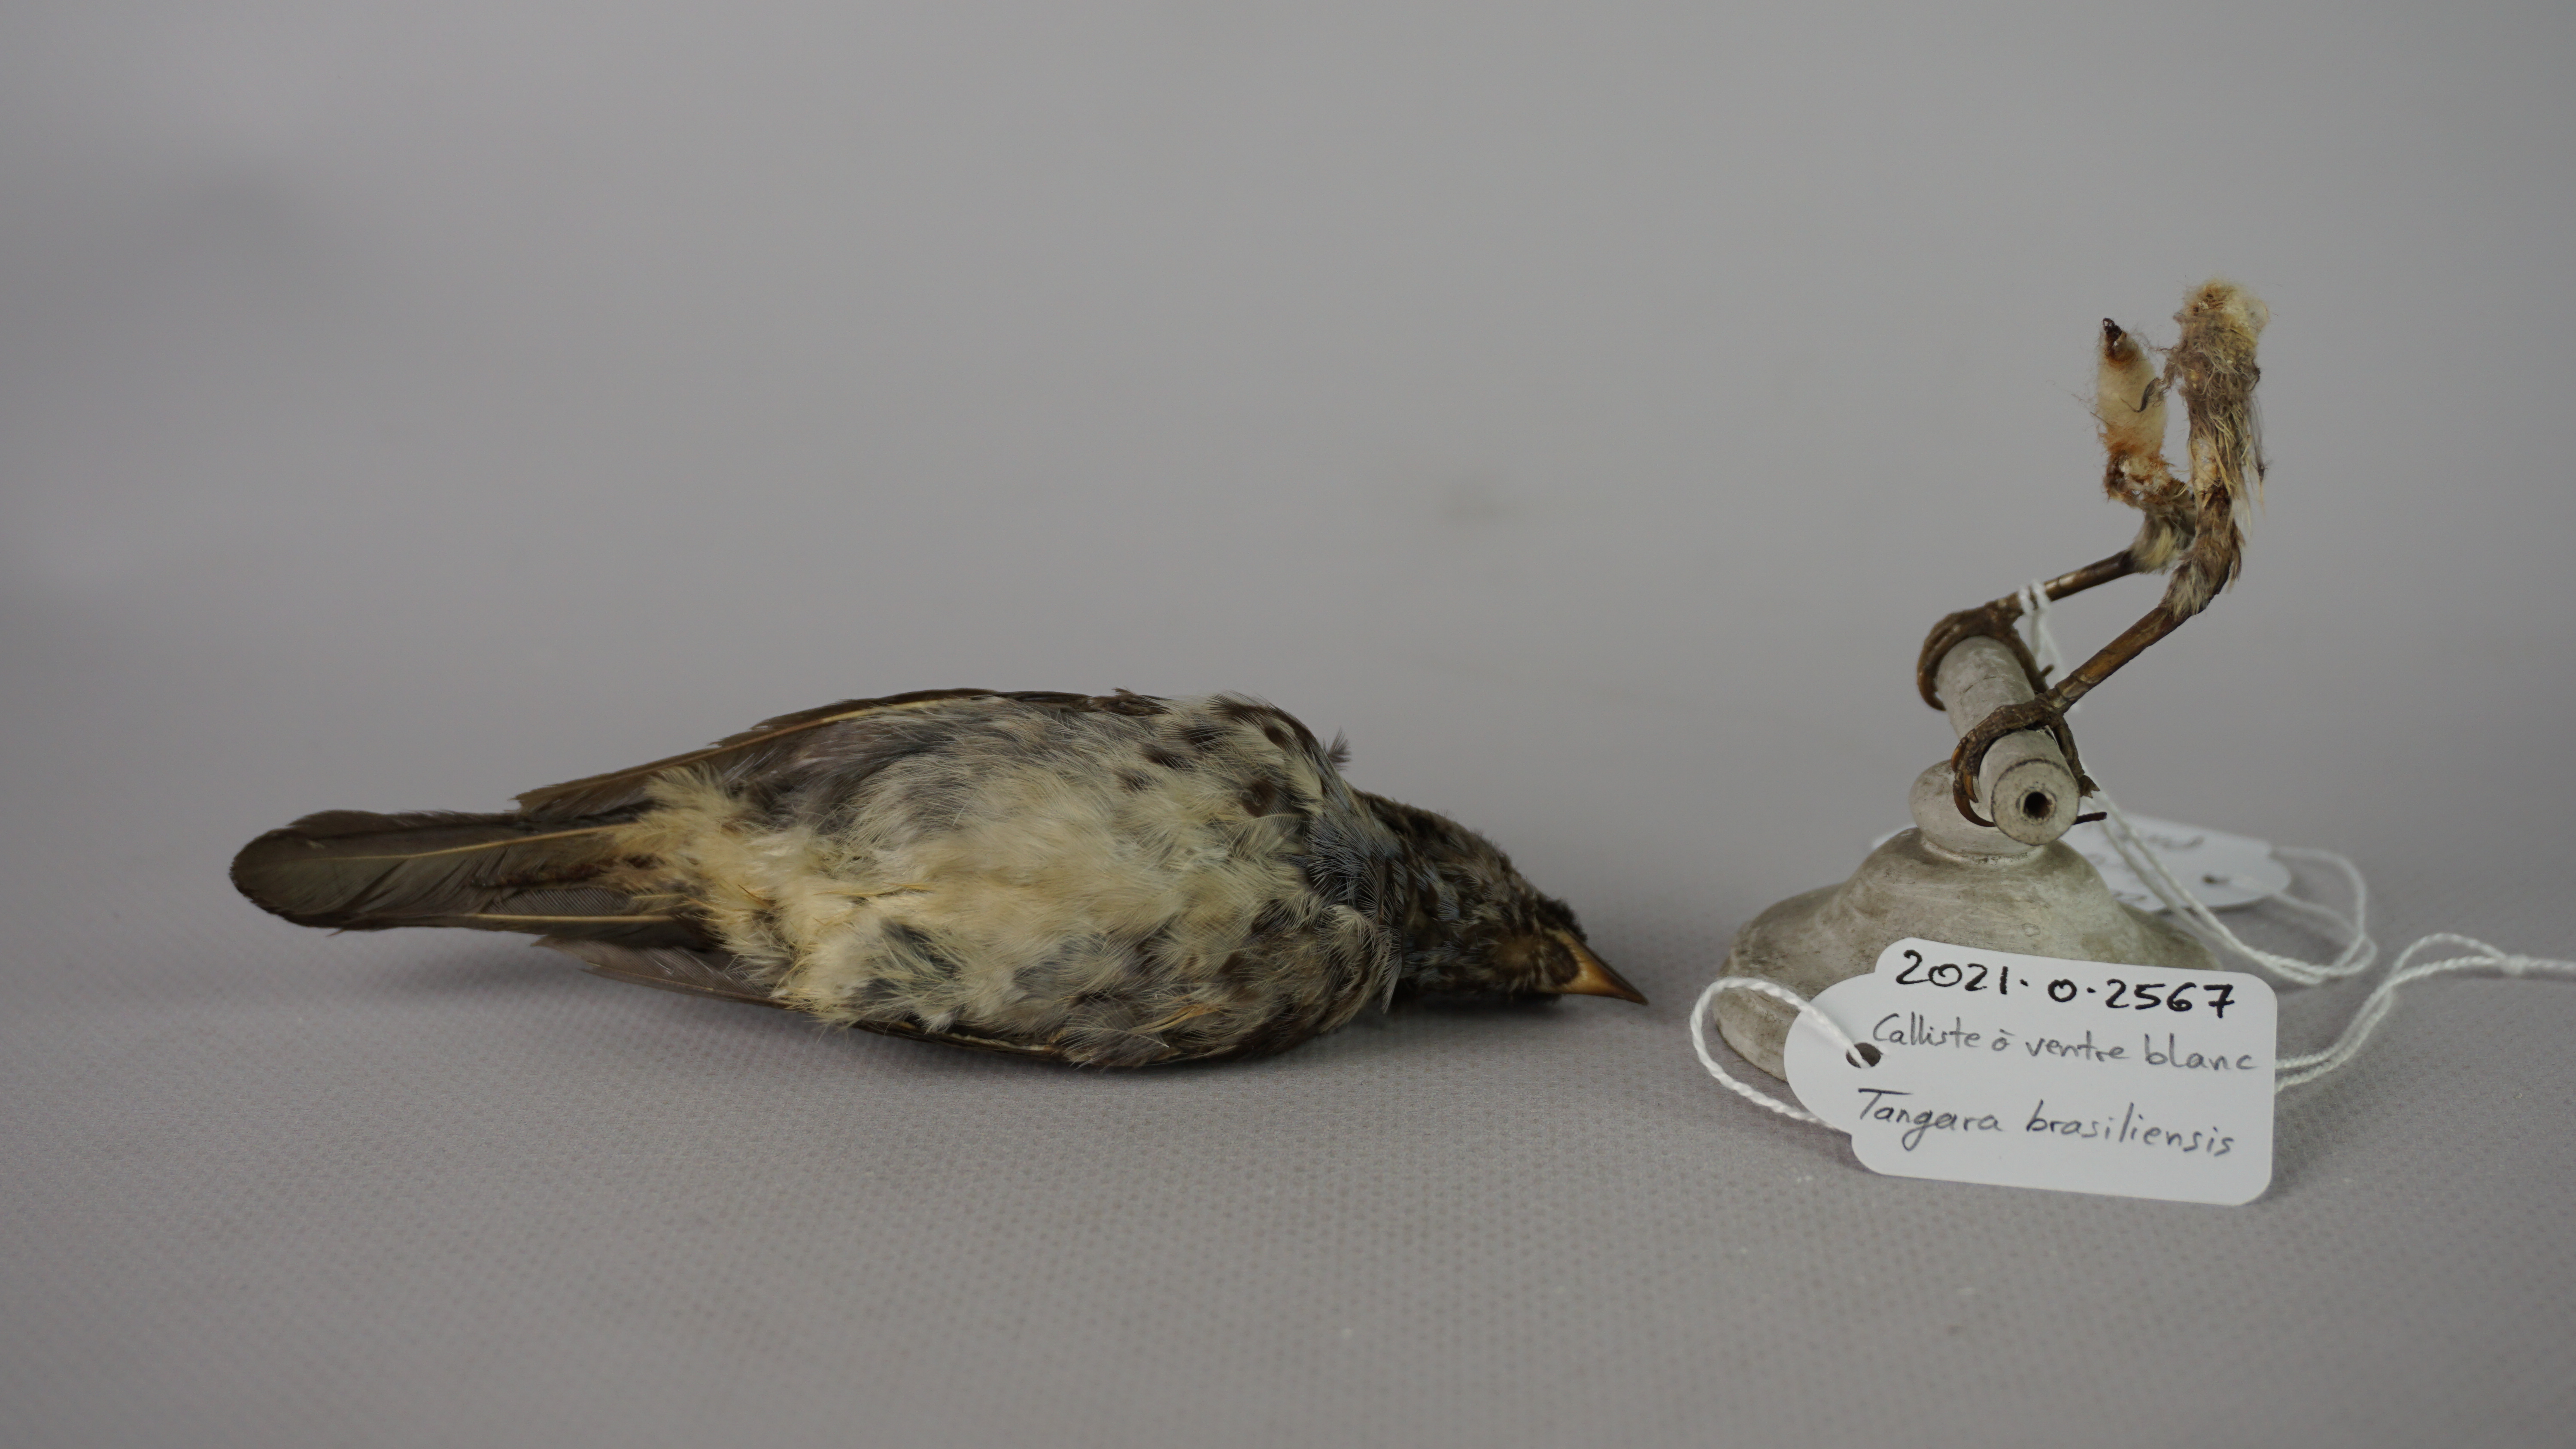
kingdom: Animalia
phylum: Chordata
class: Aves
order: Passeriformes
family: Thraupidae
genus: Tangara
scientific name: Tangara mexicana
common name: Turquoise tanager
